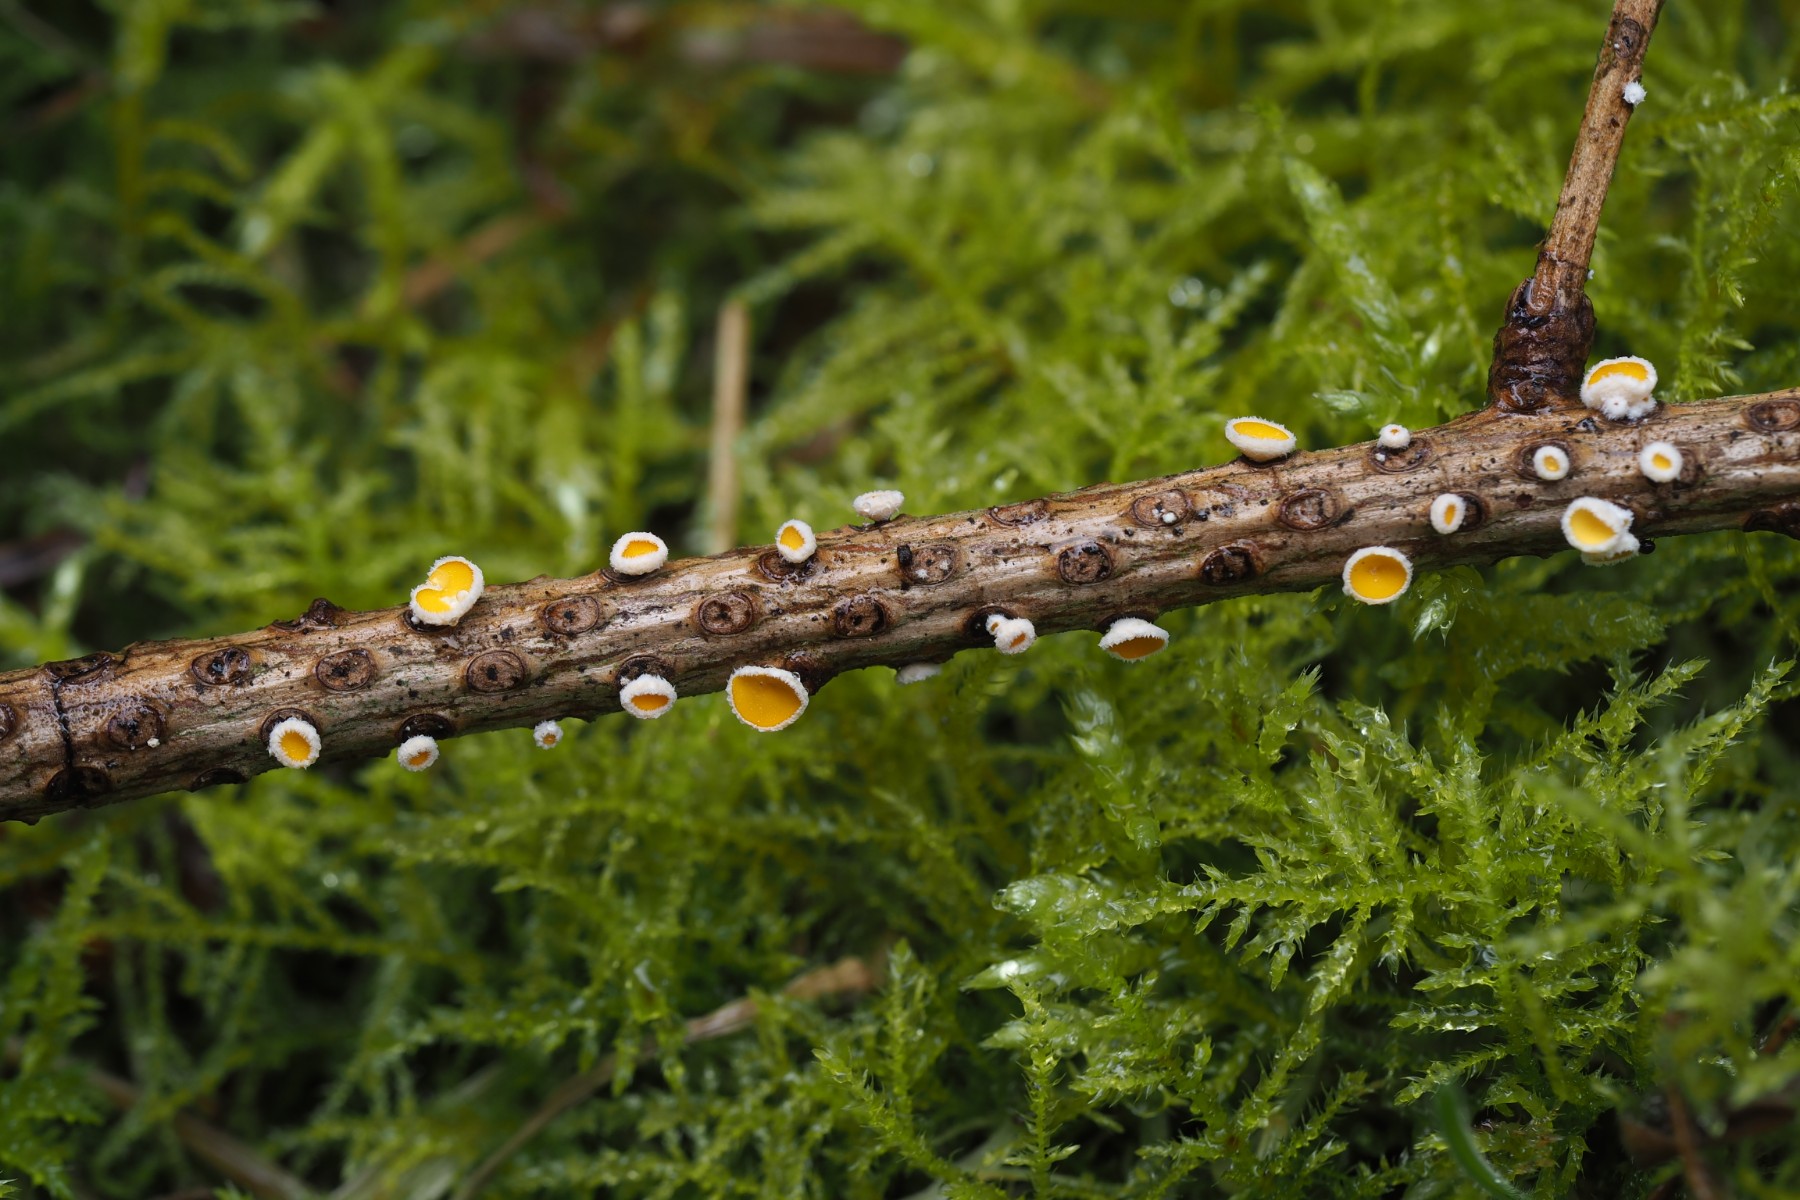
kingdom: Fungi
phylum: Ascomycota
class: Leotiomycetes
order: Helotiales
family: Lachnaceae
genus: Perrotia
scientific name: Perrotia gallica
